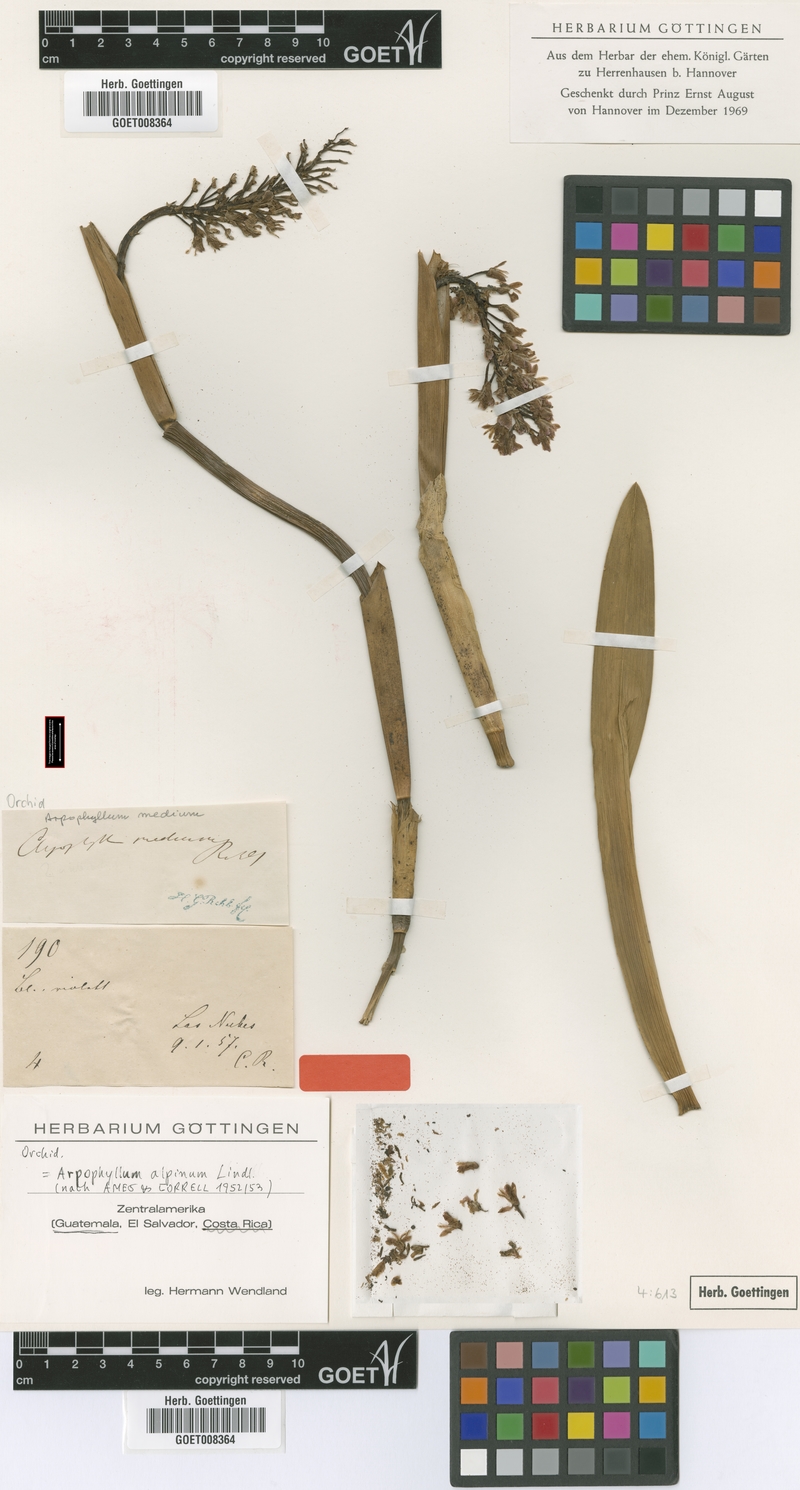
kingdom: Plantae
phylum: Tracheophyta
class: Liliopsida
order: Asparagales
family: Orchidaceae
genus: Arpophyllum
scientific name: Arpophyllum giganteum
